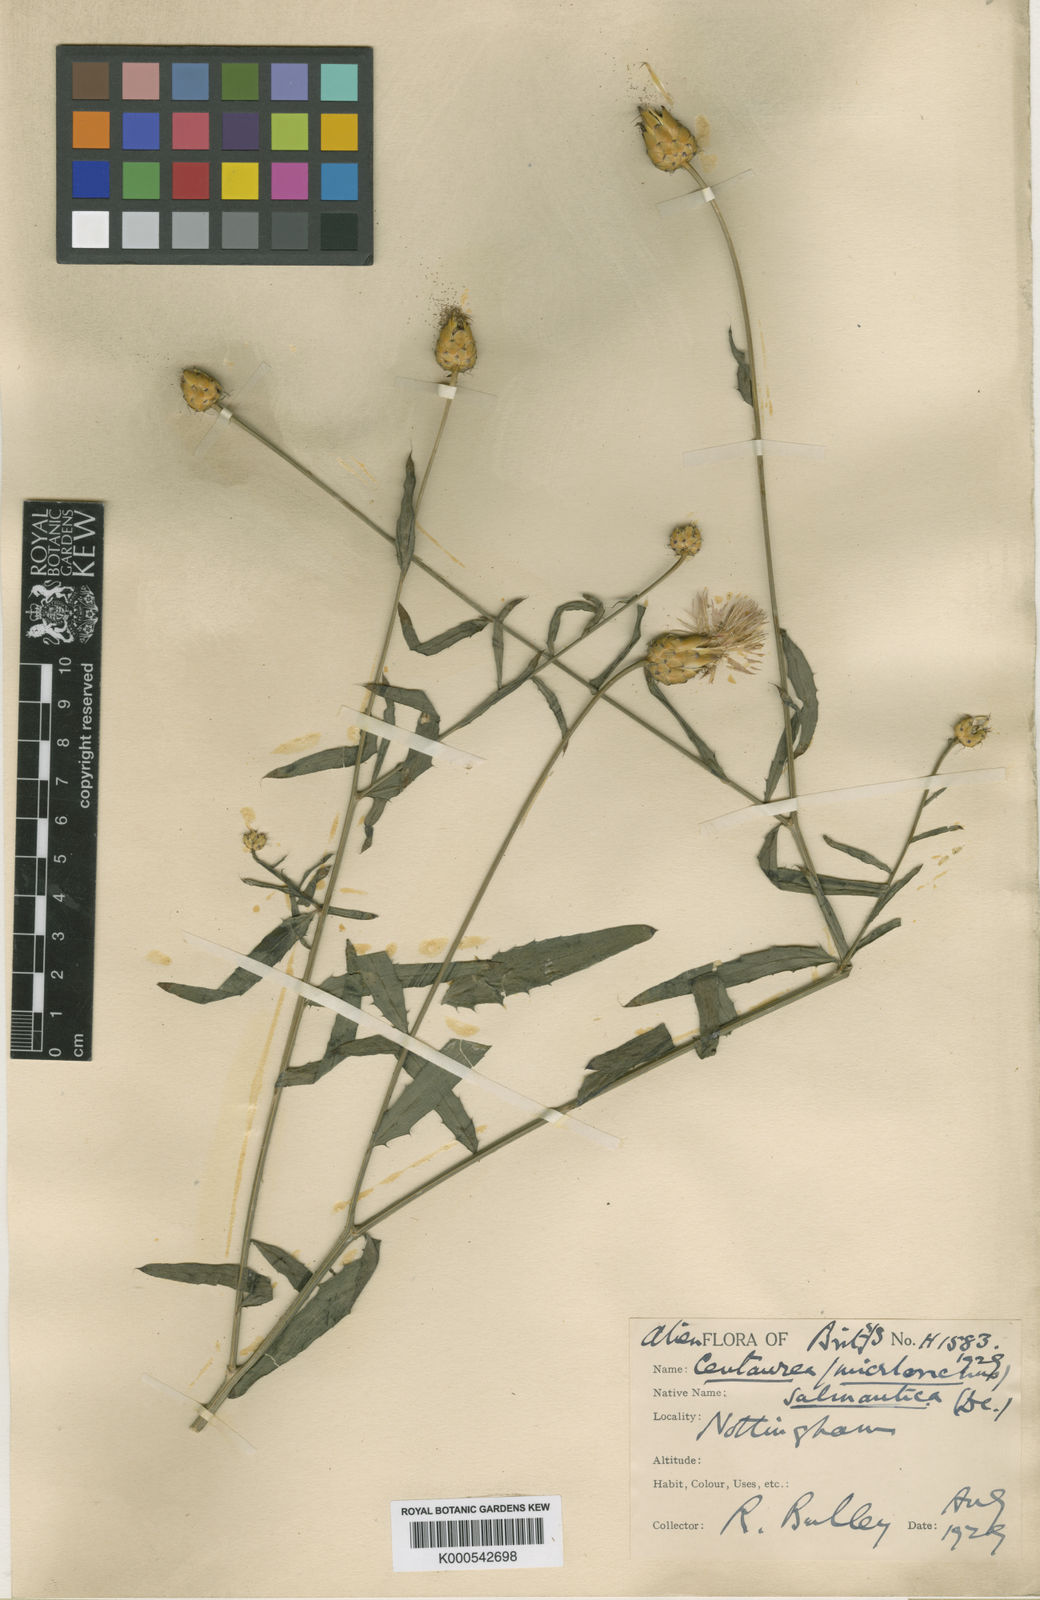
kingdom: Plantae
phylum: Tracheophyta
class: Magnoliopsida
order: Asterales
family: Asteraceae
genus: Mantisalca
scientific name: Mantisalca salmantica
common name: Dagger flower
